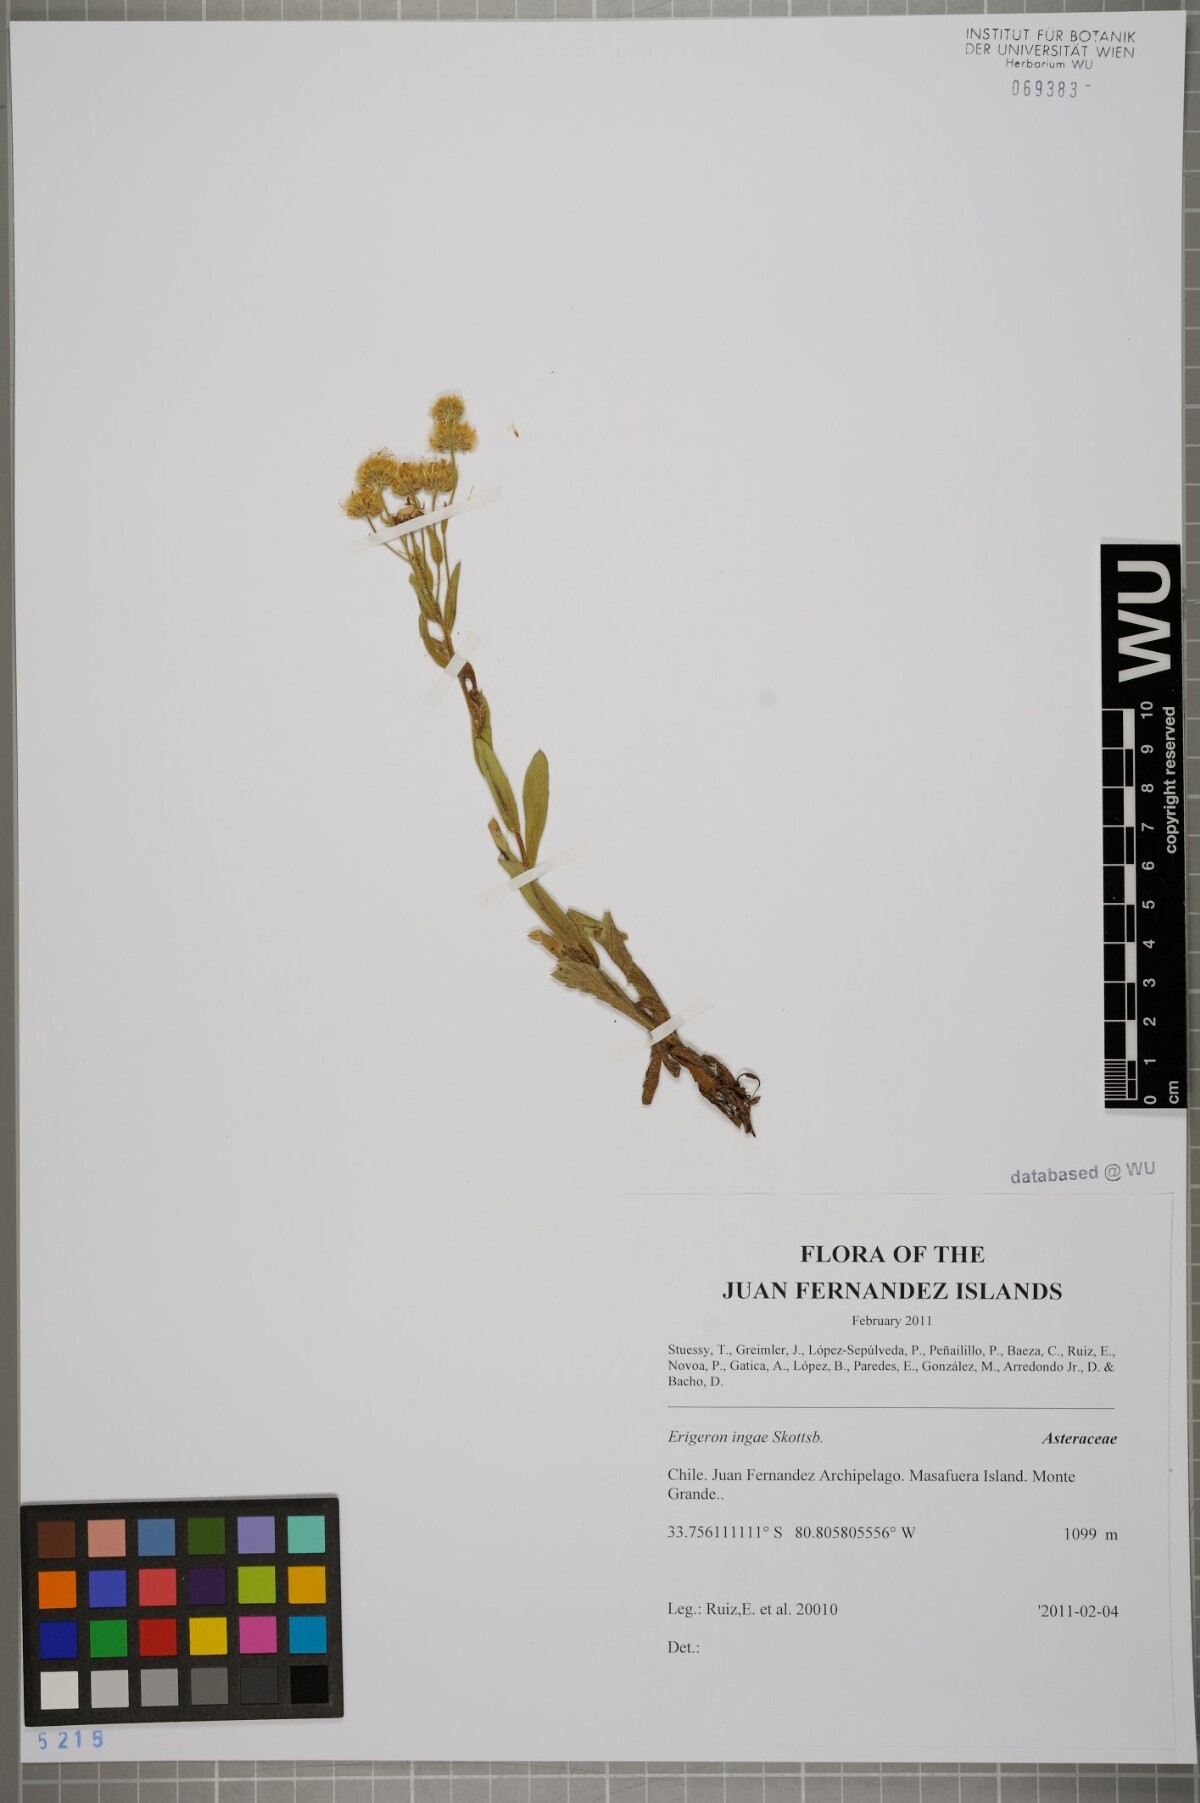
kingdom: Plantae
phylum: Tracheophyta
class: Magnoliopsida
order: Asterales
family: Asteraceae
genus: Erigeron
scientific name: Erigeron ingae
